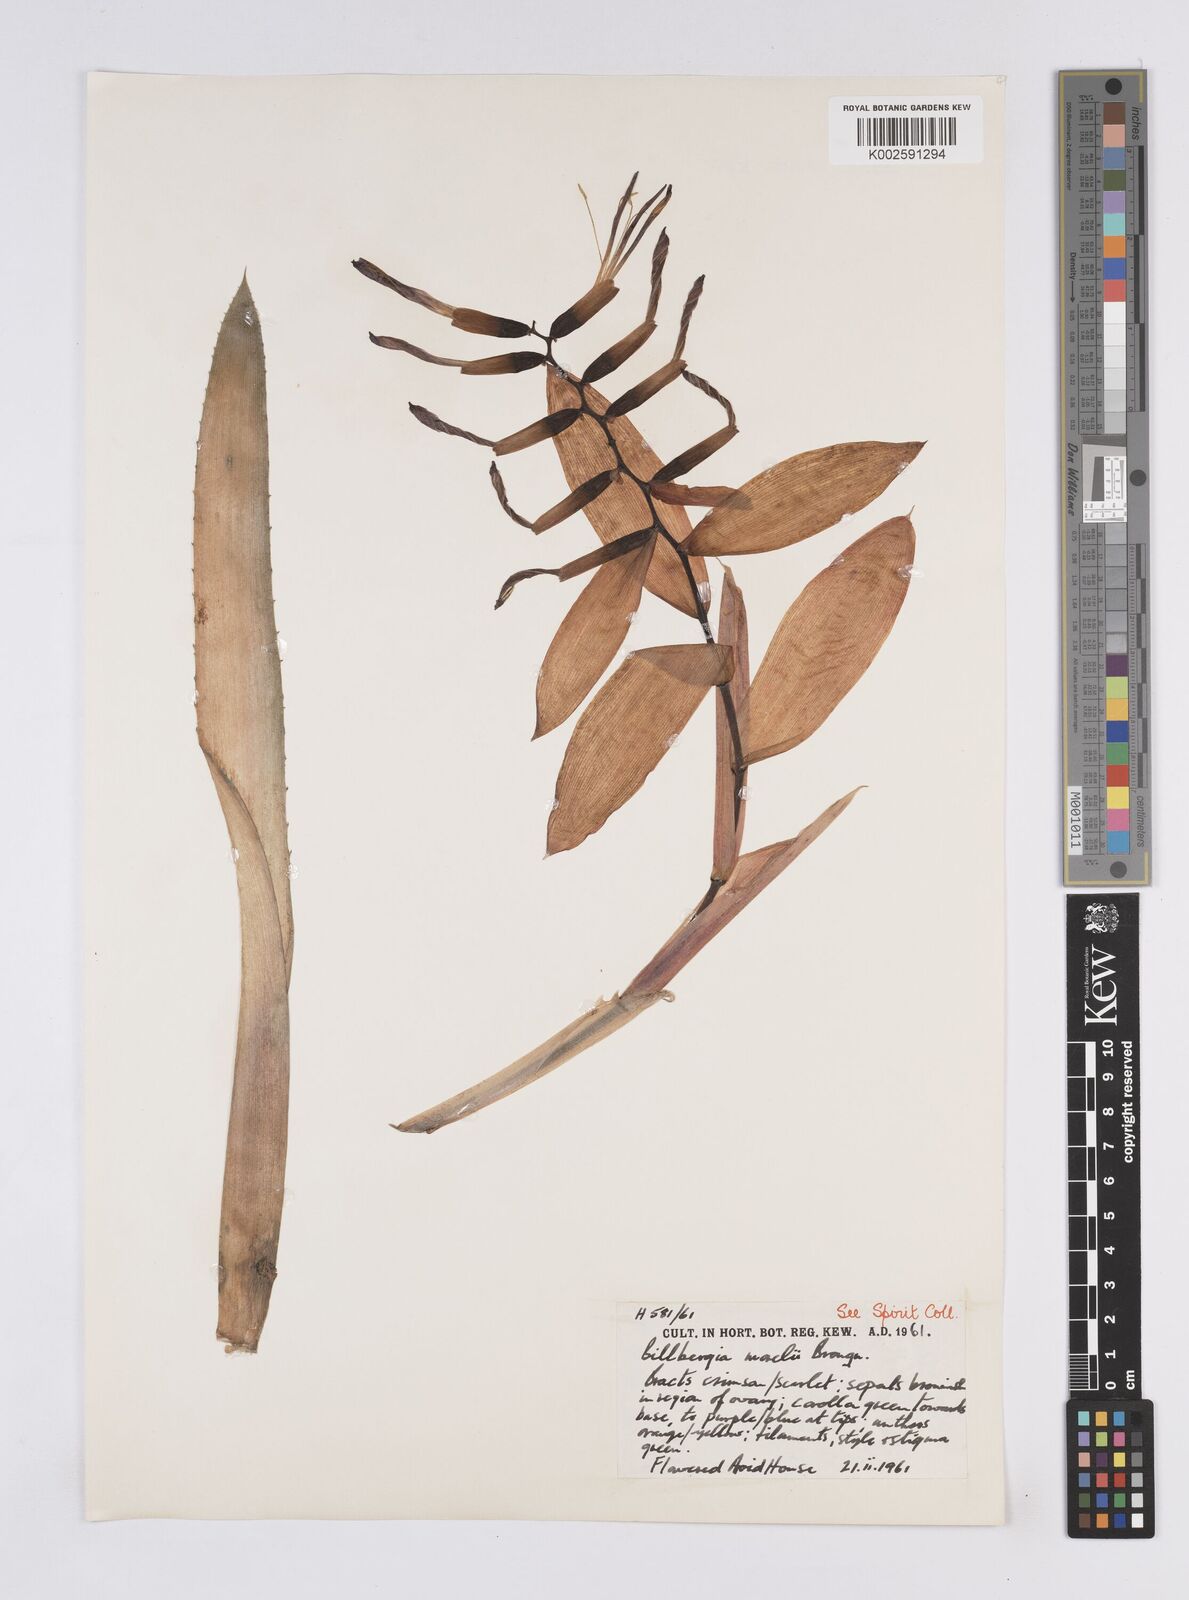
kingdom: Plantae
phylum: Tracheophyta
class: Liliopsida
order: Poales
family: Bromeliaceae
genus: Billbergia
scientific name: Billbergia morelii
